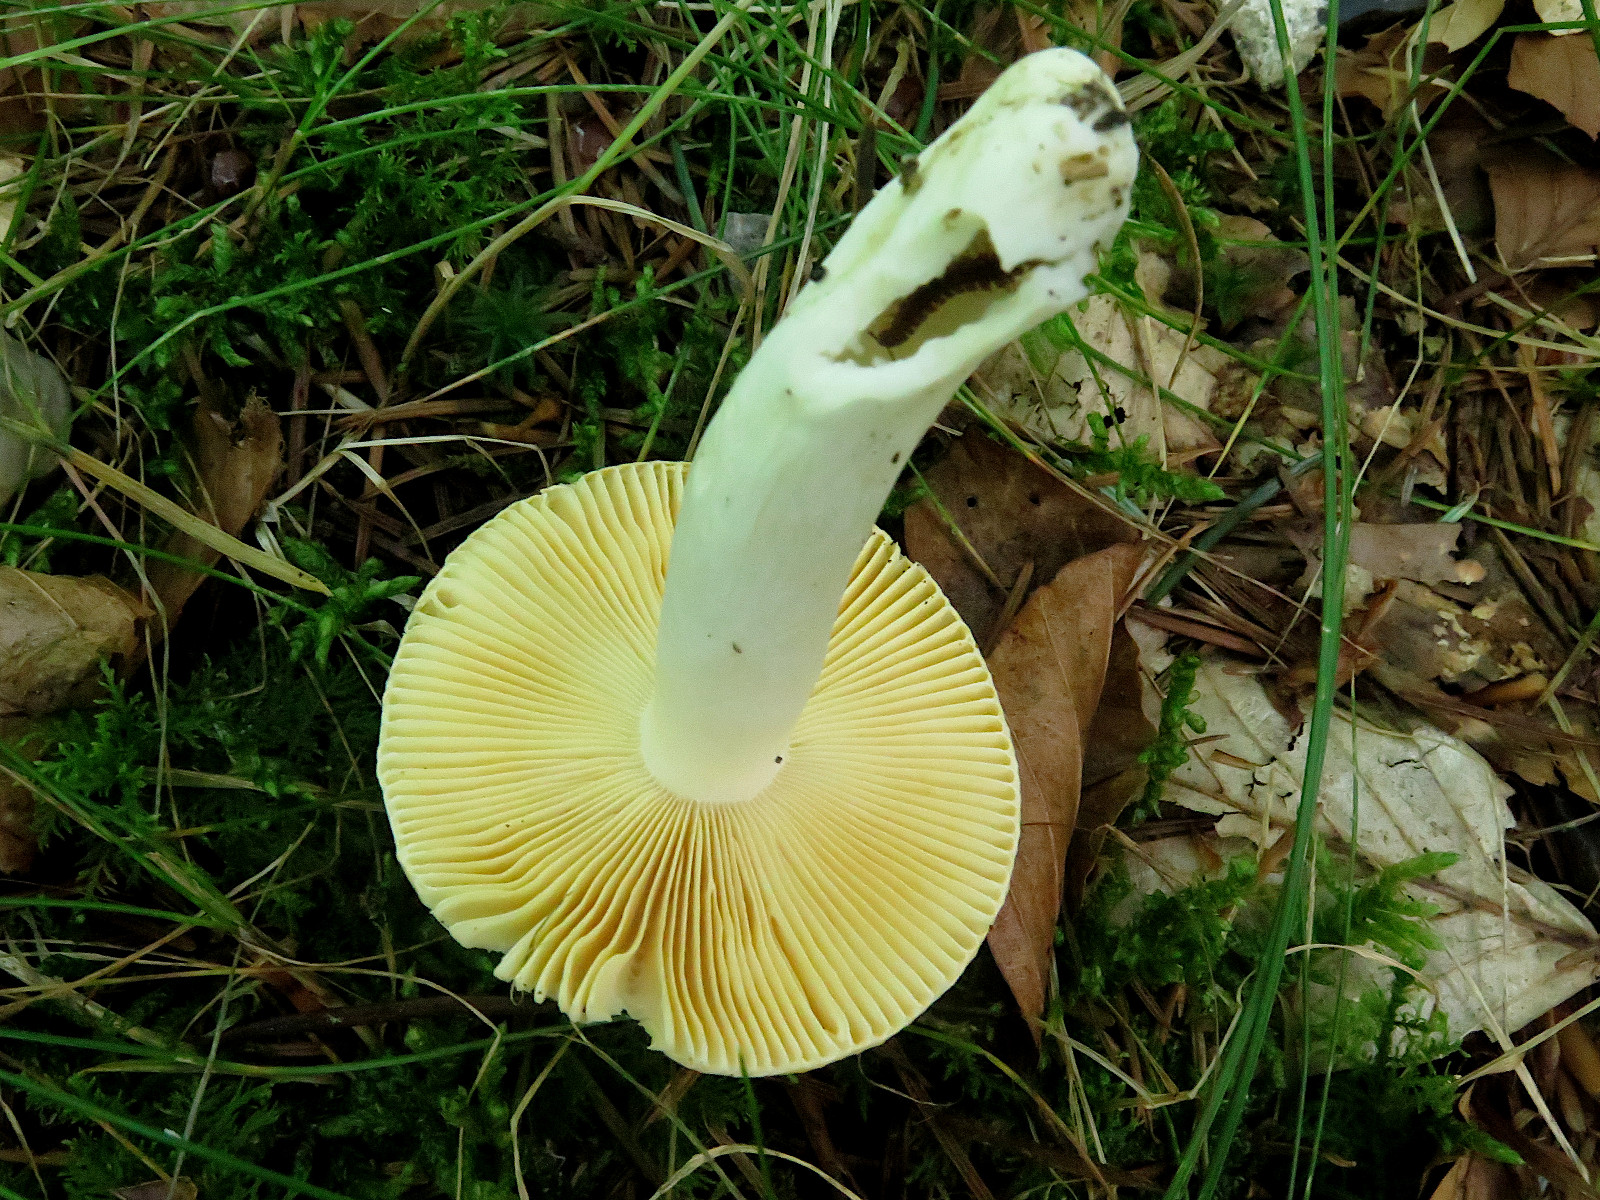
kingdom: Fungi
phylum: Basidiomycota
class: Agaricomycetes
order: Russulales
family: Russulaceae
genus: Russula
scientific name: Russula risigallina
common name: abrikos-skørhat
